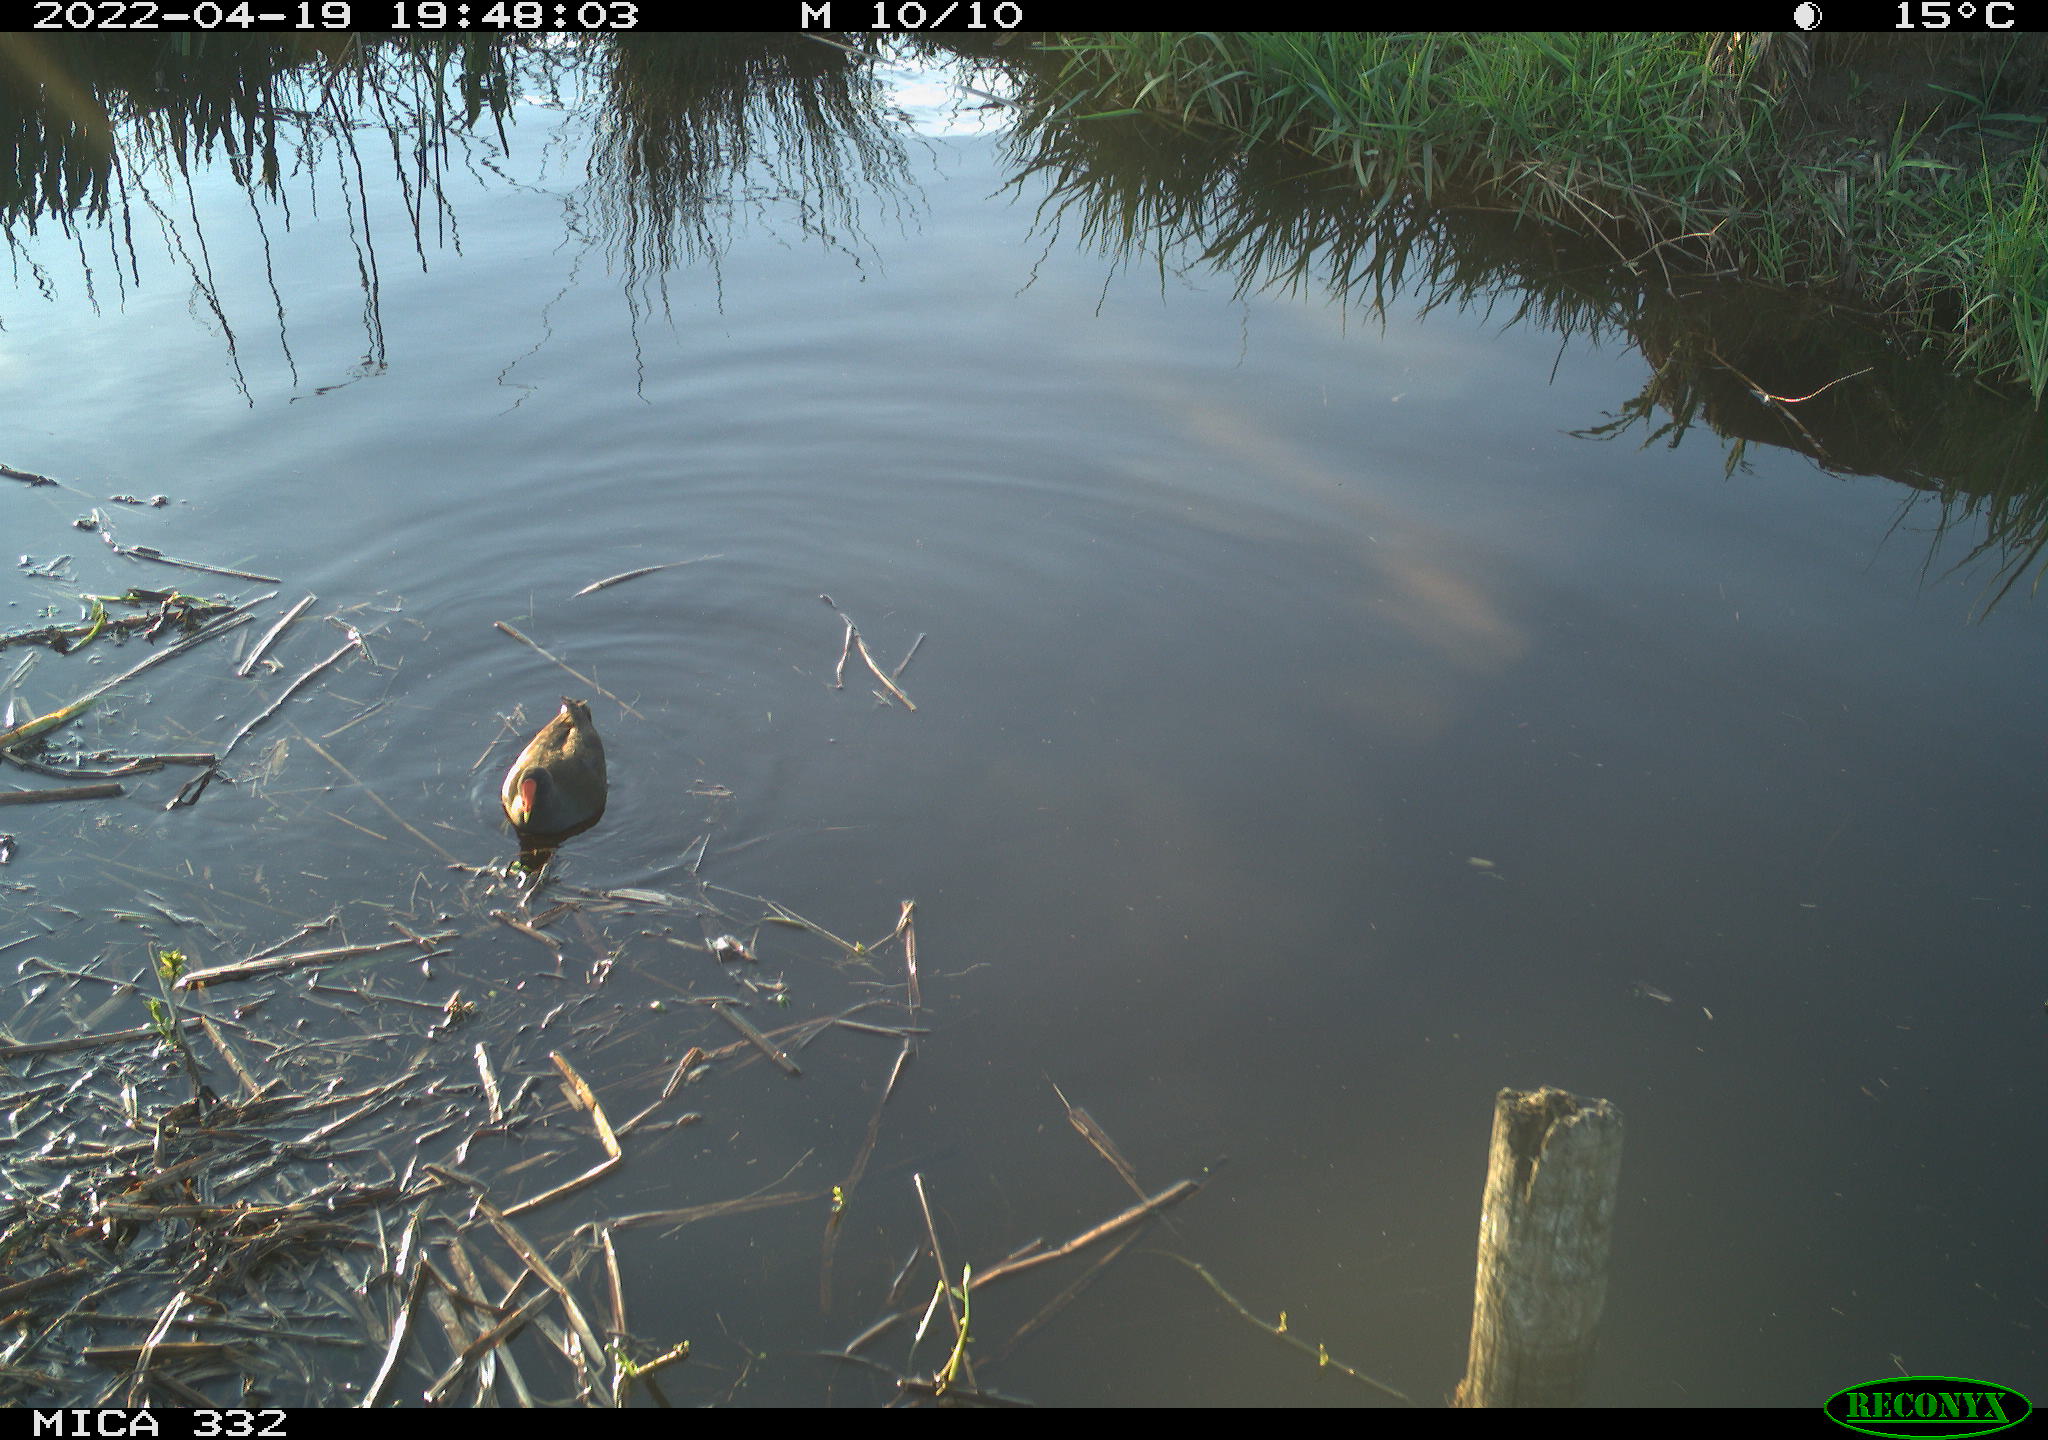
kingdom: Animalia
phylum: Chordata
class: Aves
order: Gruiformes
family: Rallidae
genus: Gallinula
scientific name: Gallinula chloropus
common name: Common moorhen
